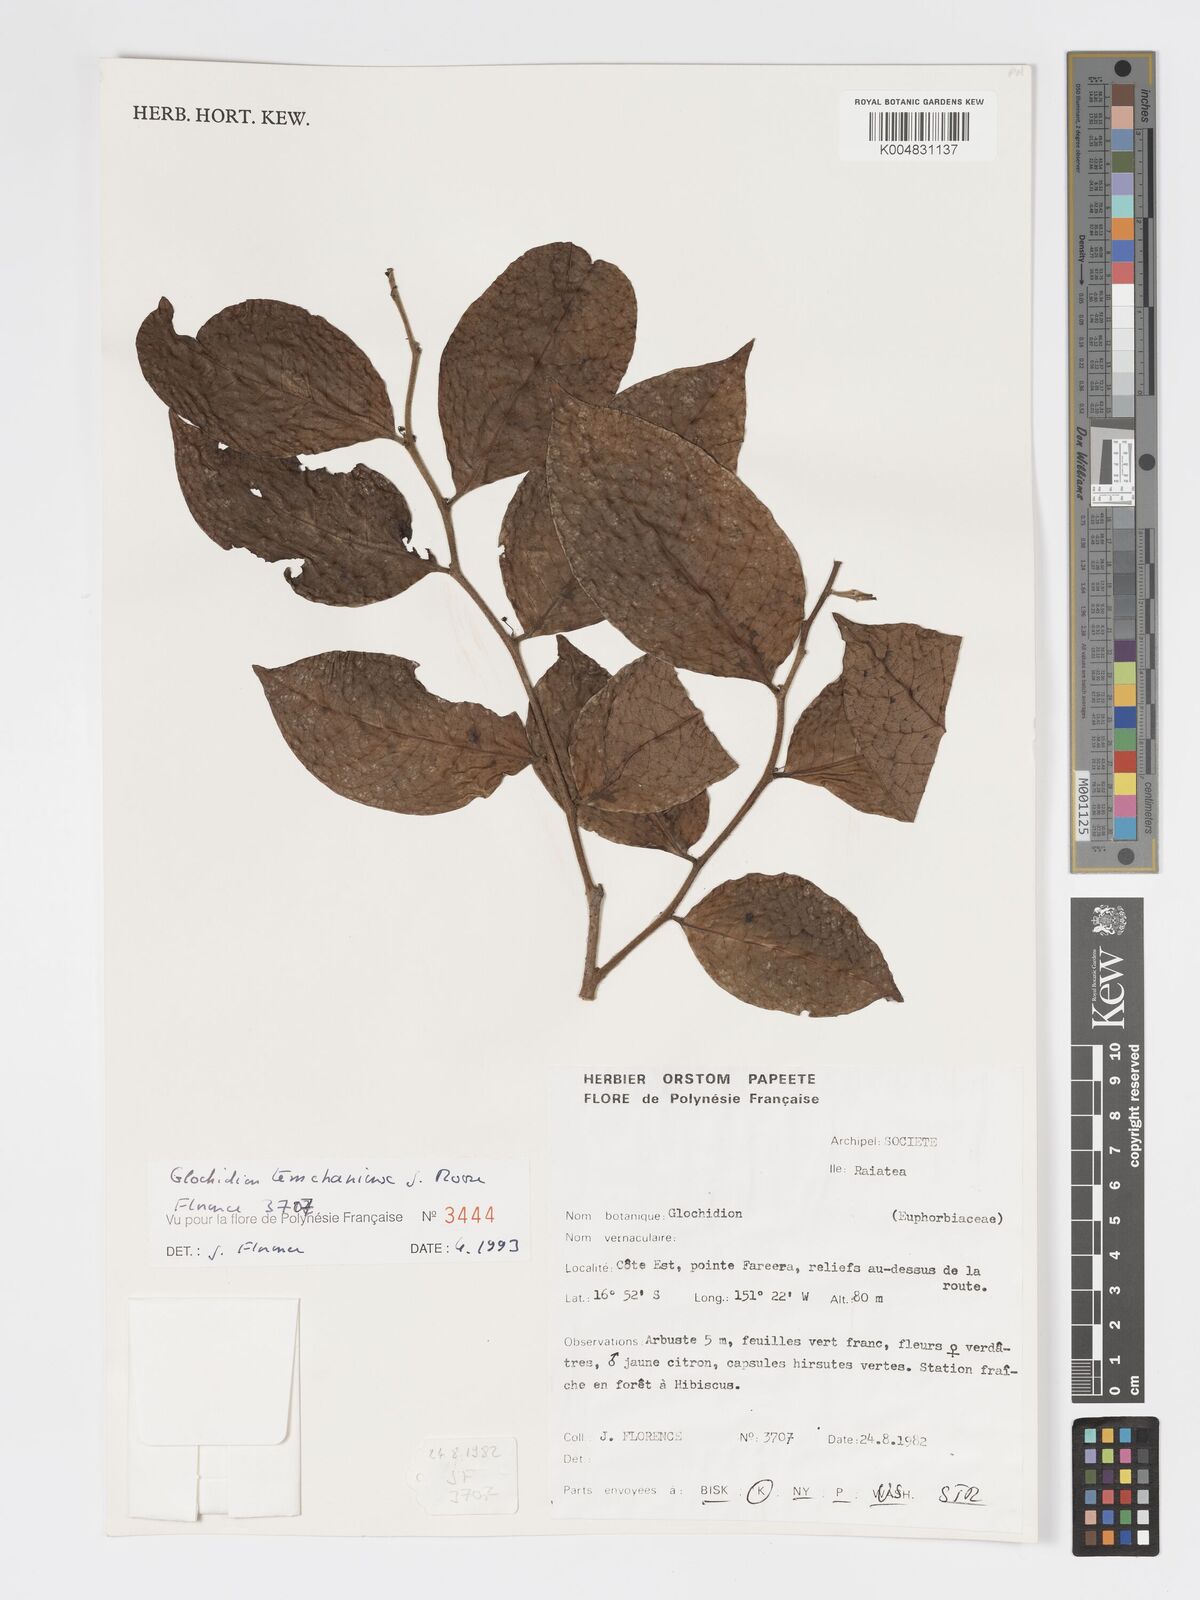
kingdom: Plantae
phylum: Tracheophyta
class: Magnoliopsida
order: Malpighiales
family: Phyllanthaceae
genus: Glochidion
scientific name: Glochidion temehaniense
